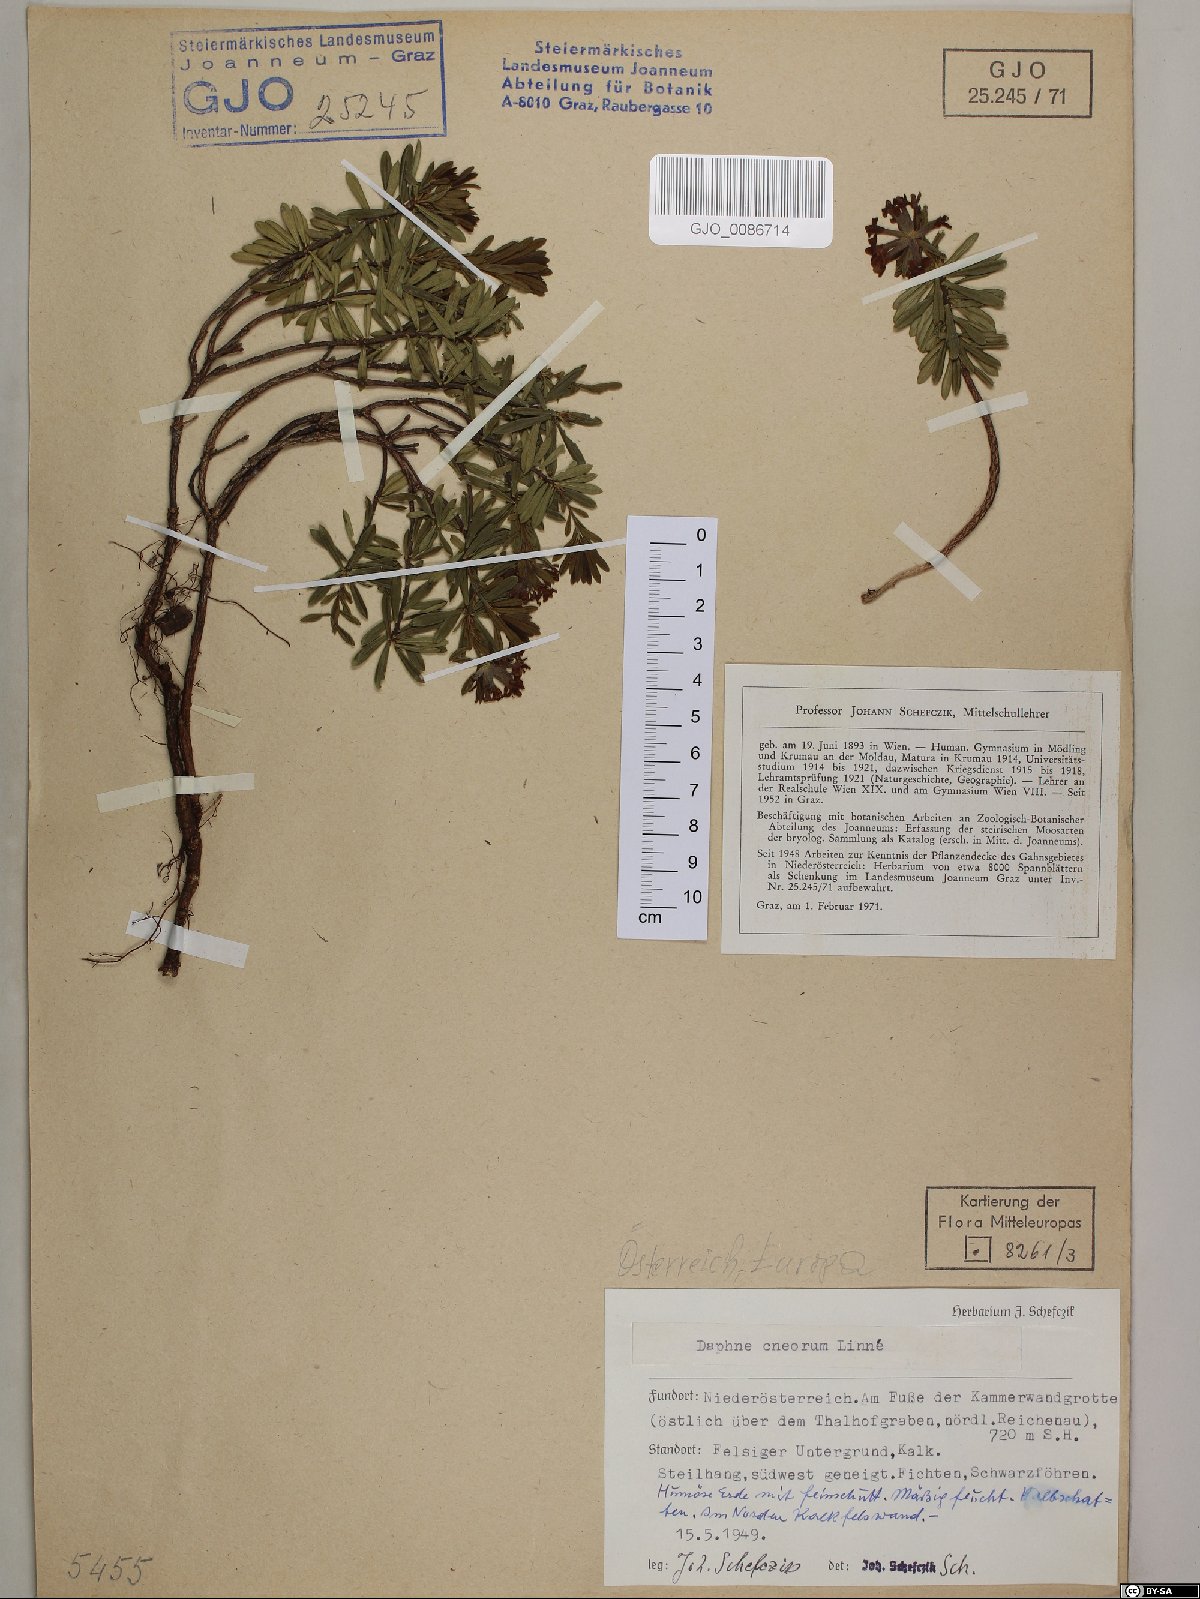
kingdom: Plantae
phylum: Tracheophyta
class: Magnoliopsida
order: Malvales
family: Thymelaeaceae
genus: Daphne
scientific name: Daphne cneorum
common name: Garland-flower
